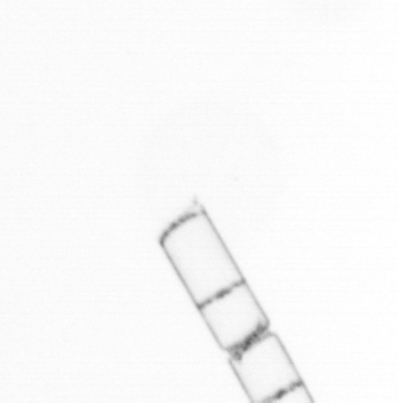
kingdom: Chromista
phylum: Ochrophyta
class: Bacillariophyceae
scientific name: Bacillariophyceae
